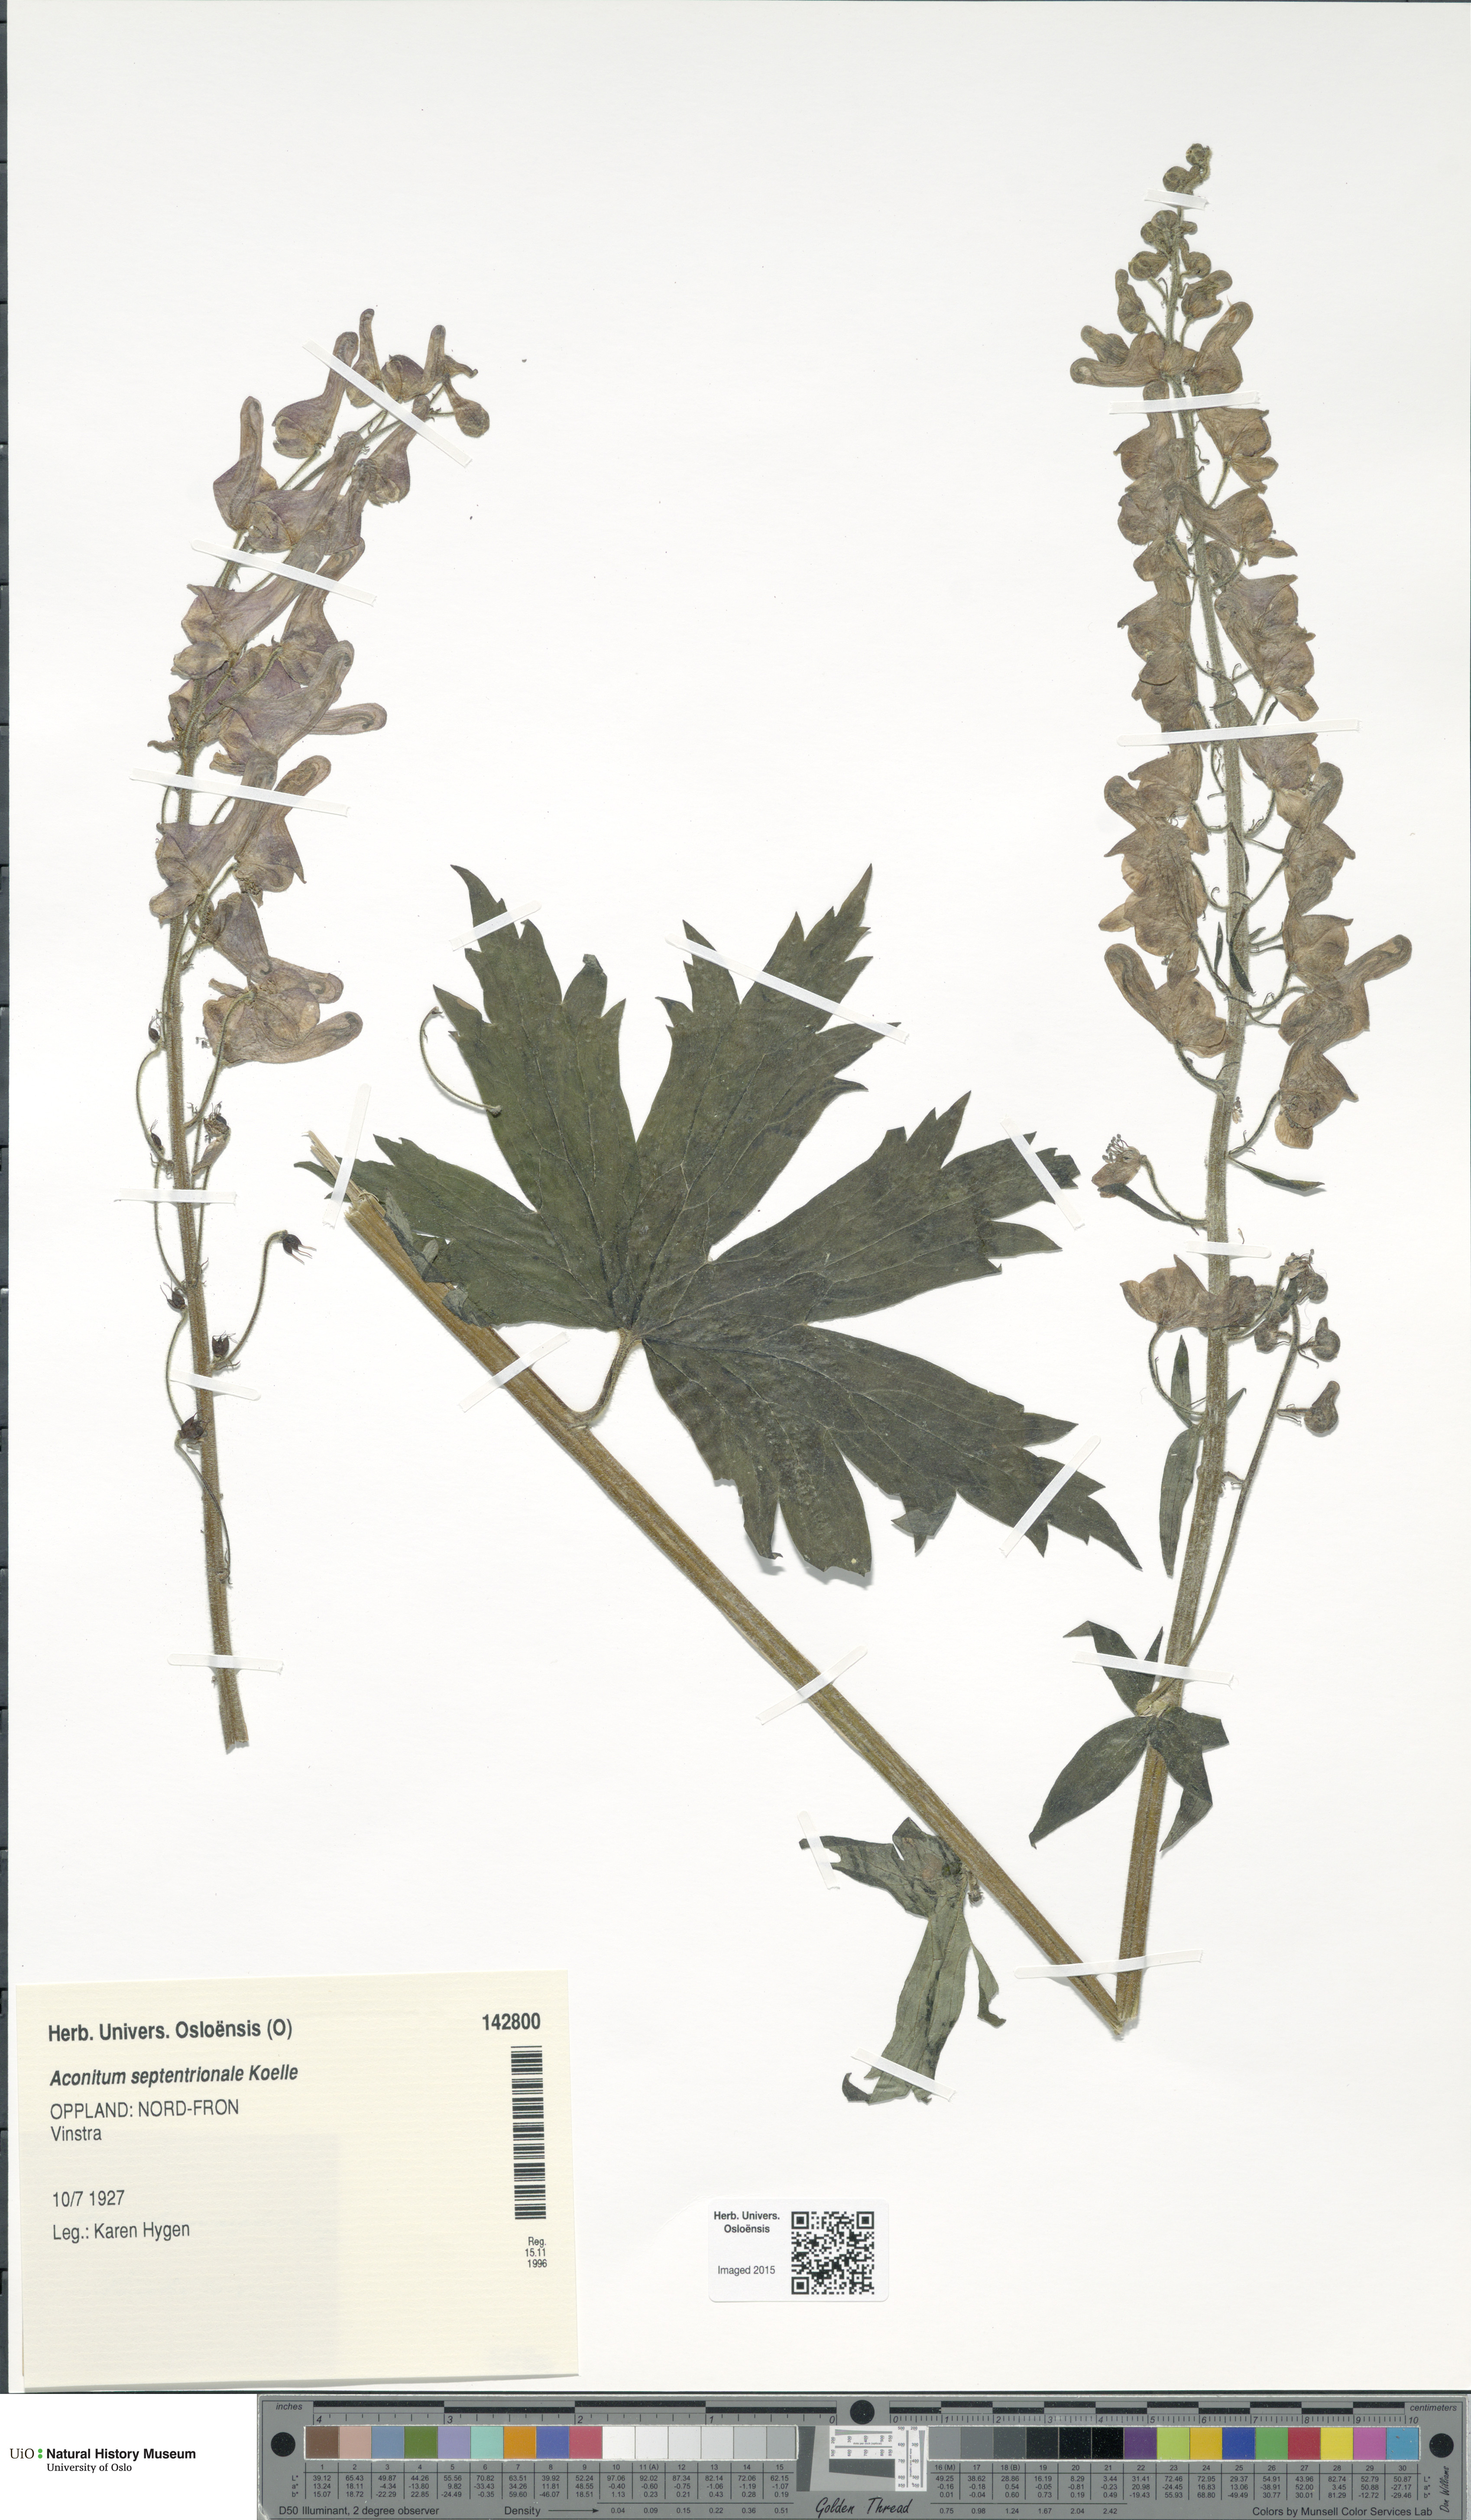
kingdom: Plantae
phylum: Tracheophyta
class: Magnoliopsida
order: Ranunculales
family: Ranunculaceae
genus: Aconitum
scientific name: Aconitum septentrionale
